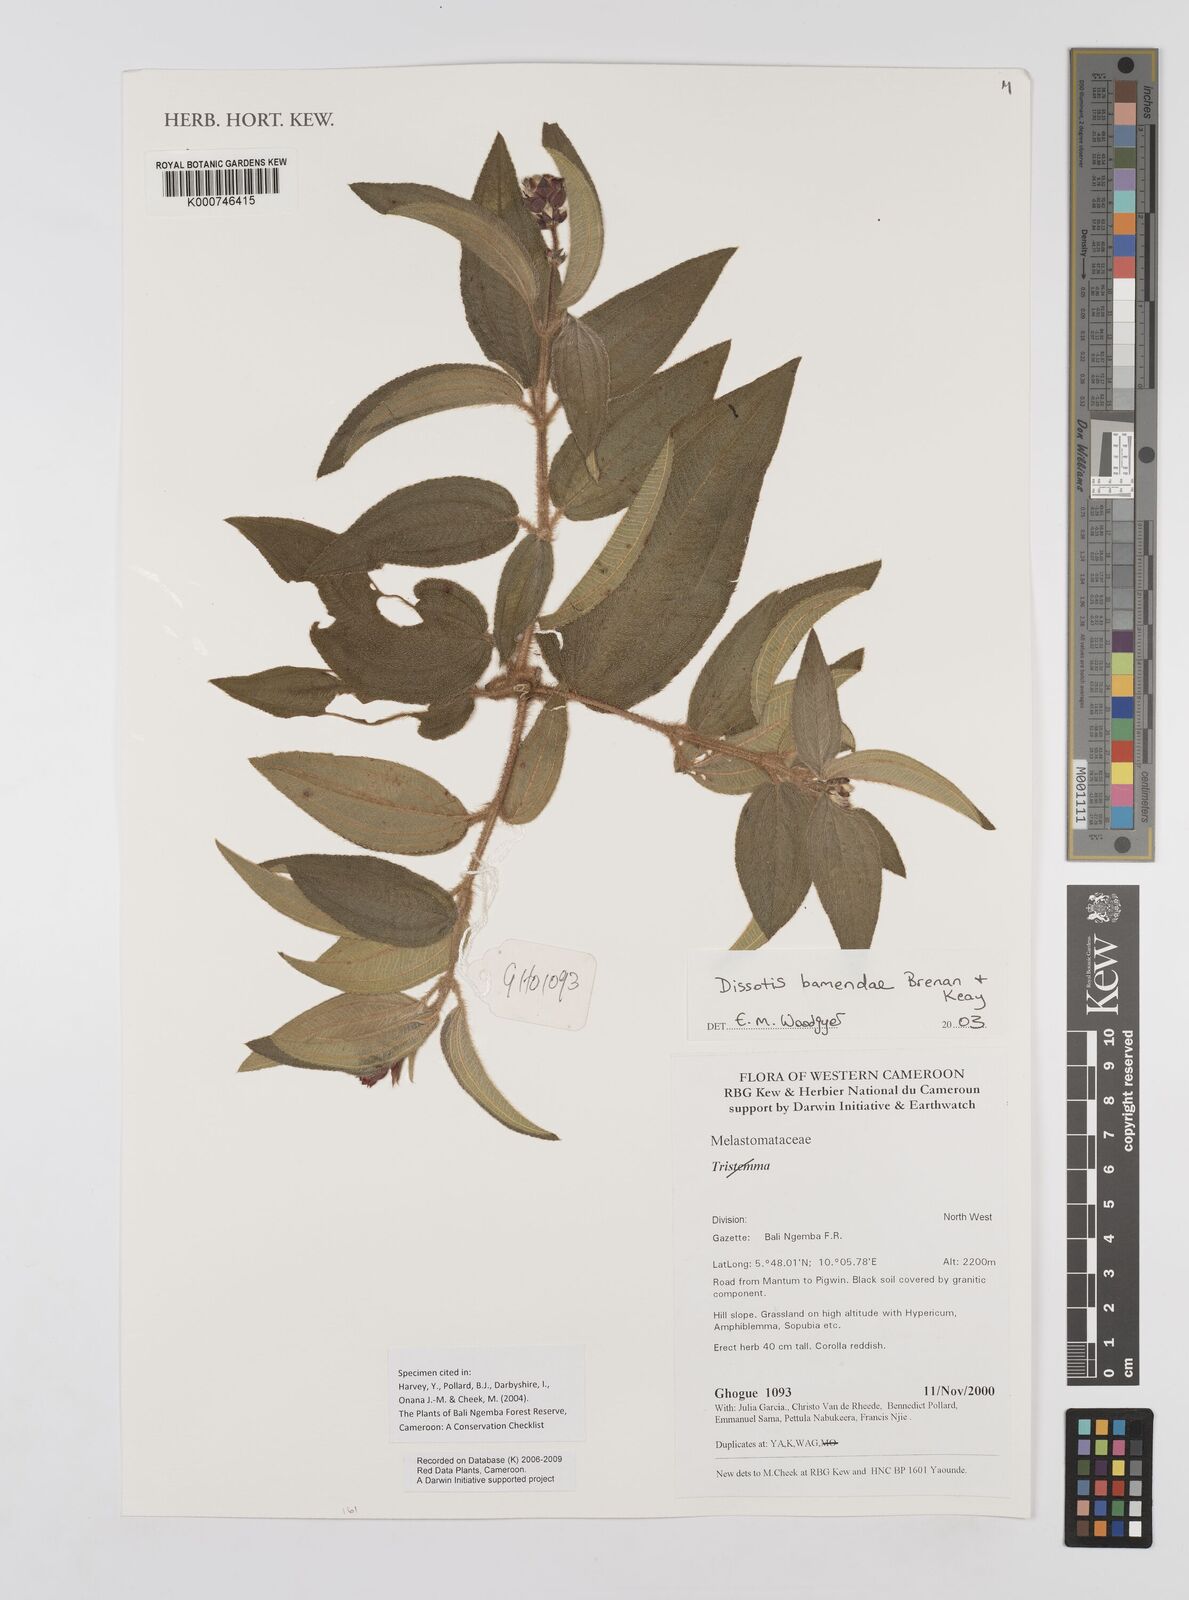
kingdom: Plantae
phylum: Tracheophyta
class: Magnoliopsida
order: Myrtales
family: Melastomataceae
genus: Rosettea
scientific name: Rosettea riparia
